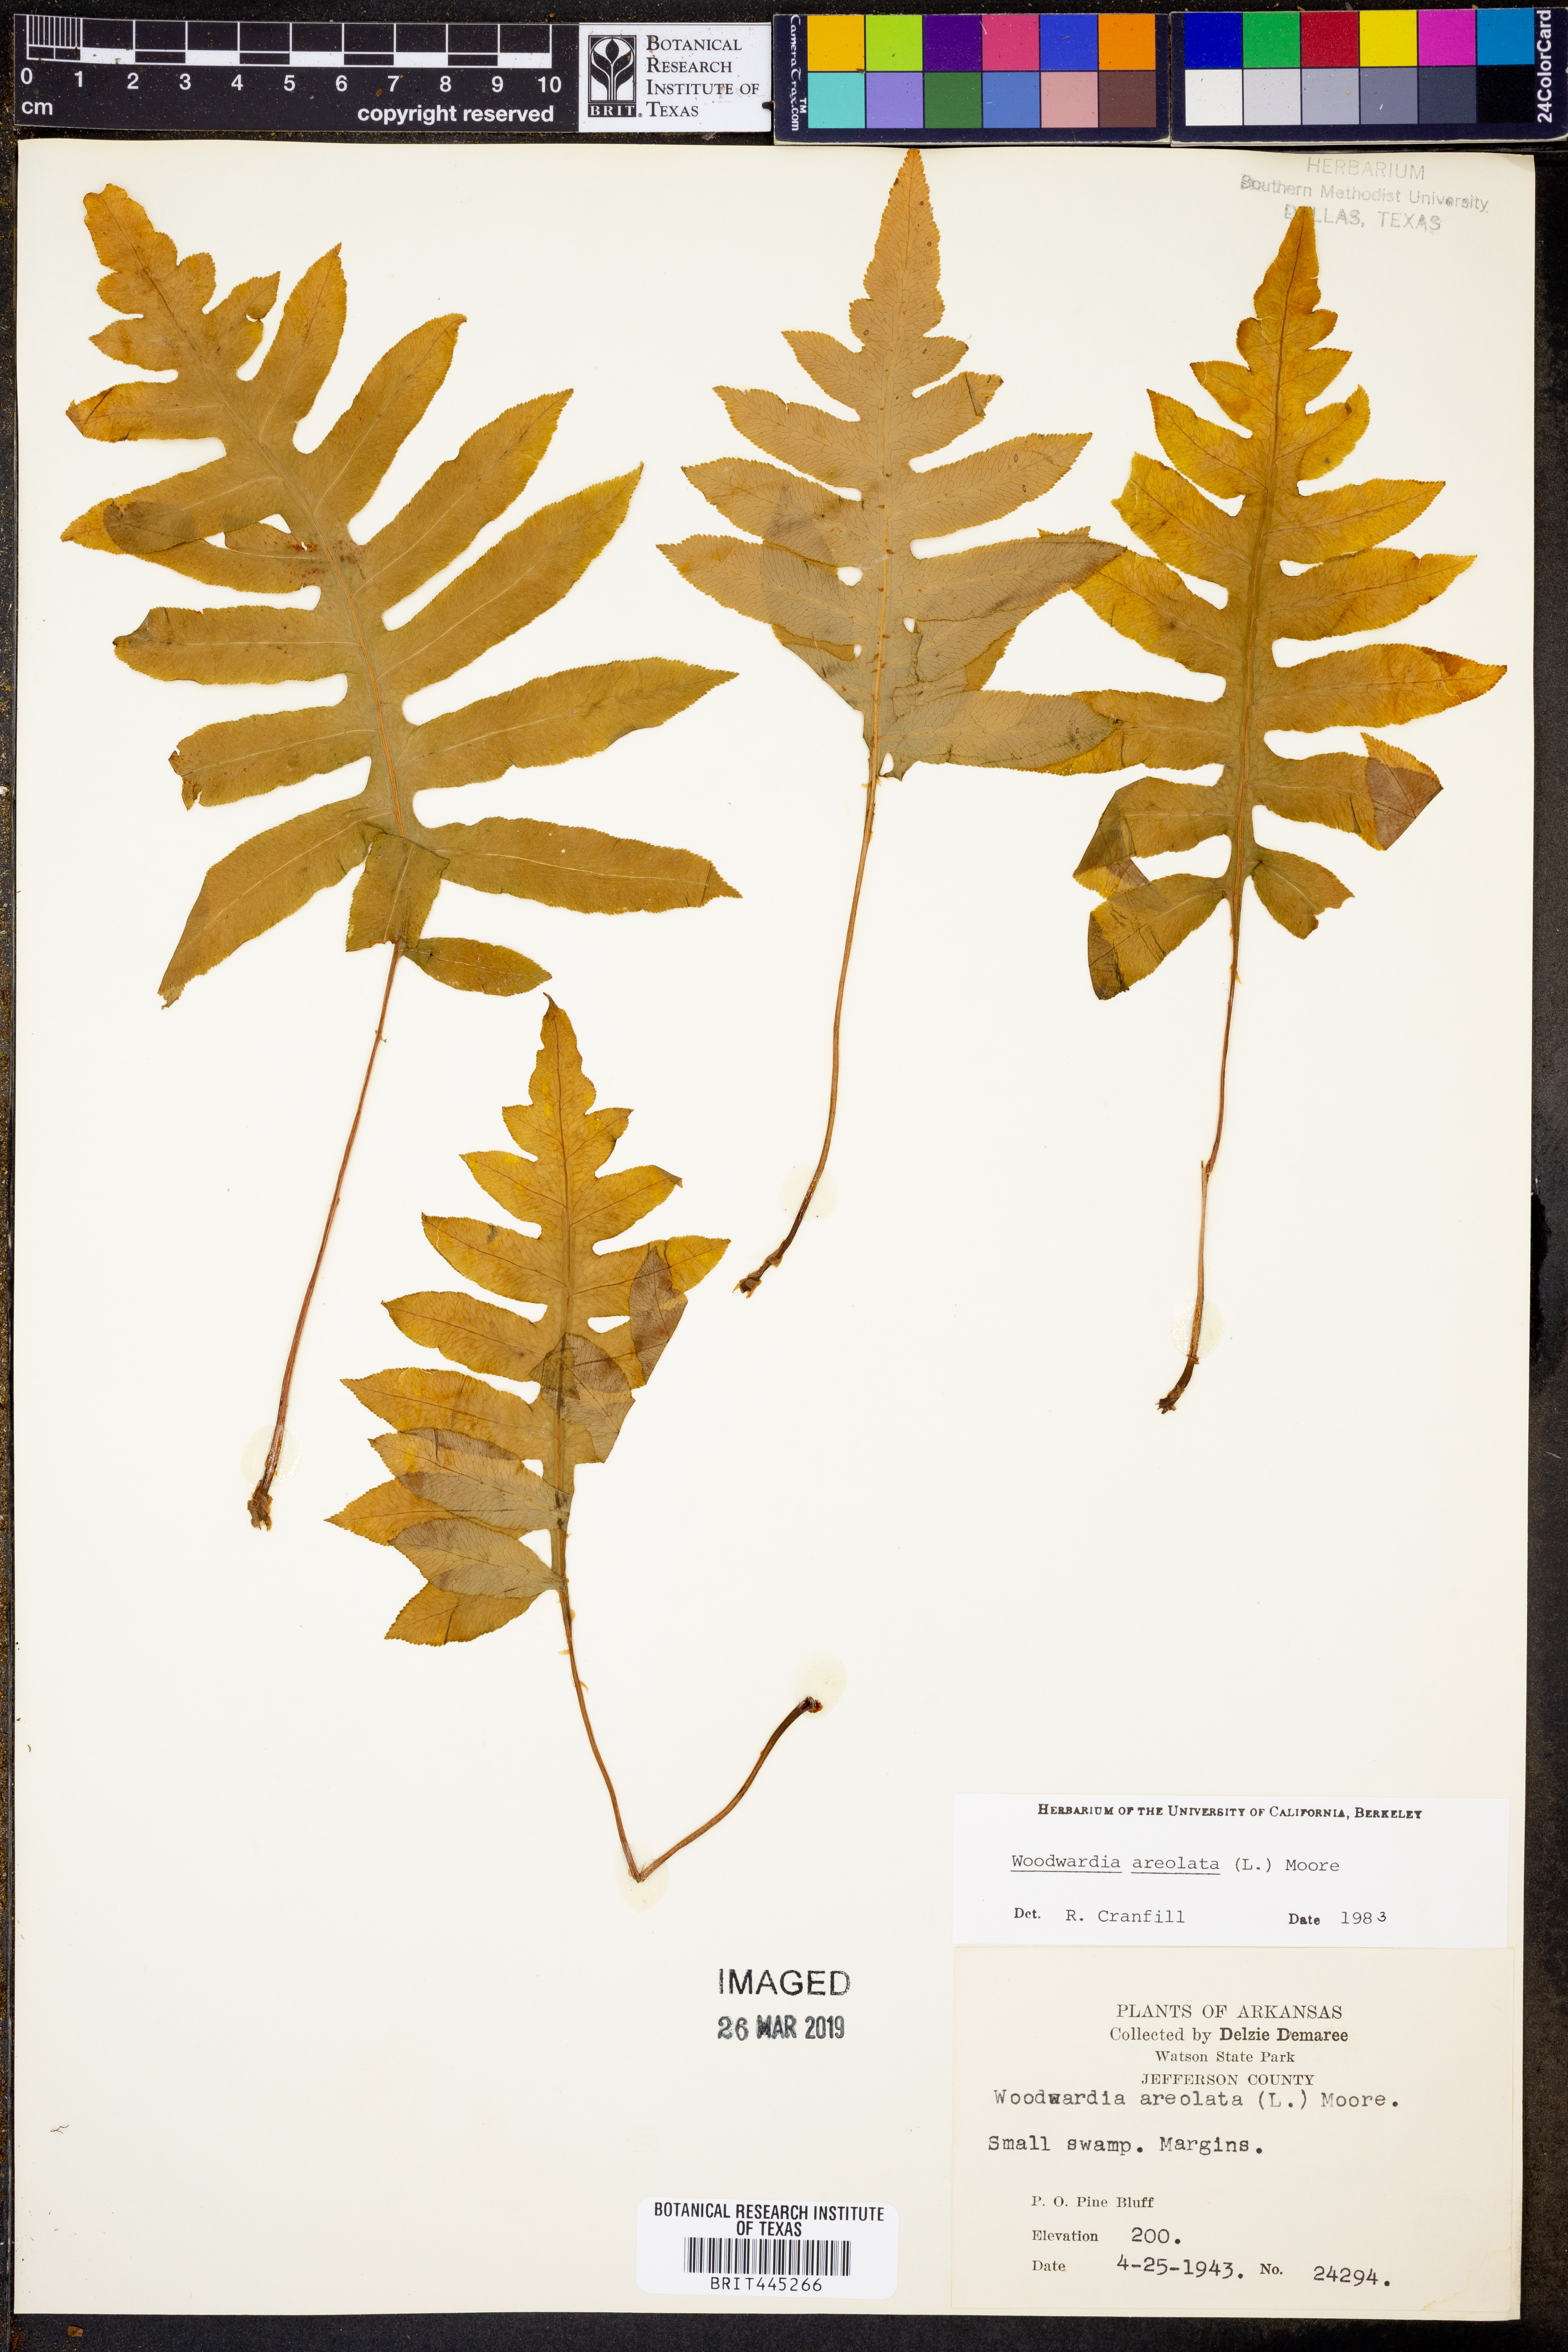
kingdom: Plantae
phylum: Tracheophyta
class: Polypodiopsida
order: Polypodiales
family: Blechnaceae
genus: Lorinseria
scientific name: Lorinseria areolata
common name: Dwarf chain fern
